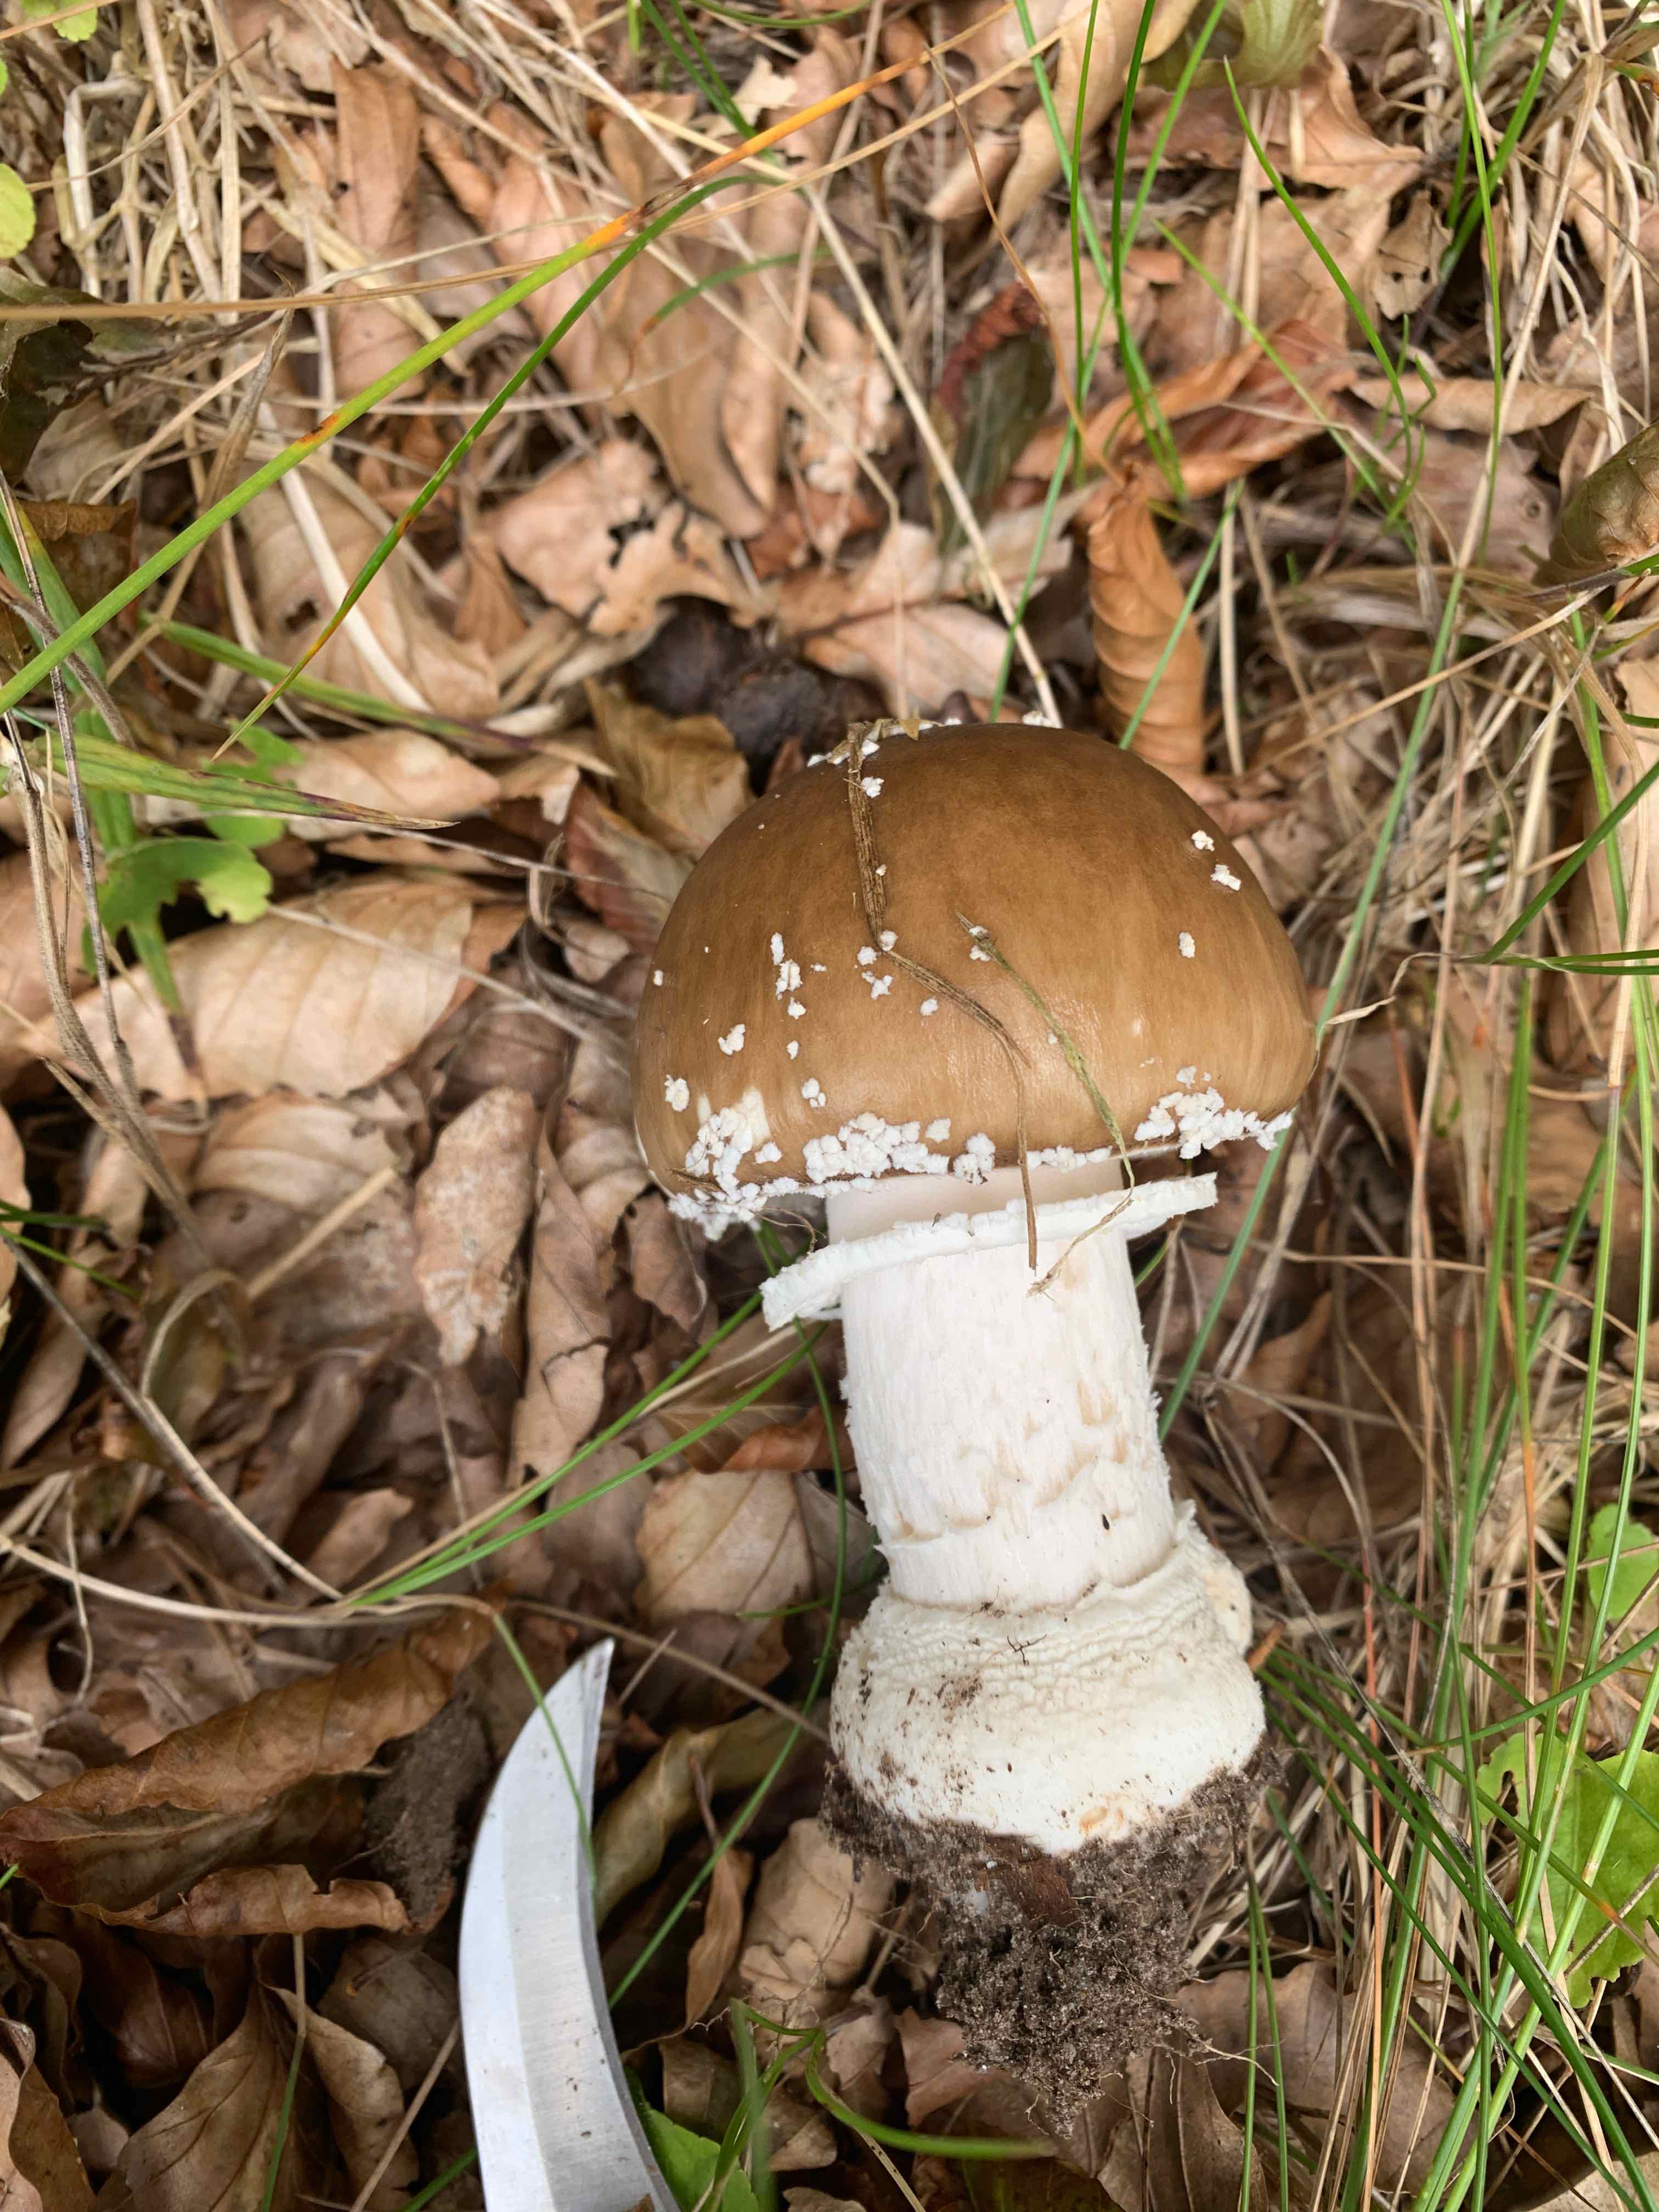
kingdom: Fungi
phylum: Basidiomycota
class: Agaricomycetes
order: Agaricales
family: Amanitaceae
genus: Amanita
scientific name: Amanita pantherina
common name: panter-fluesvamp
